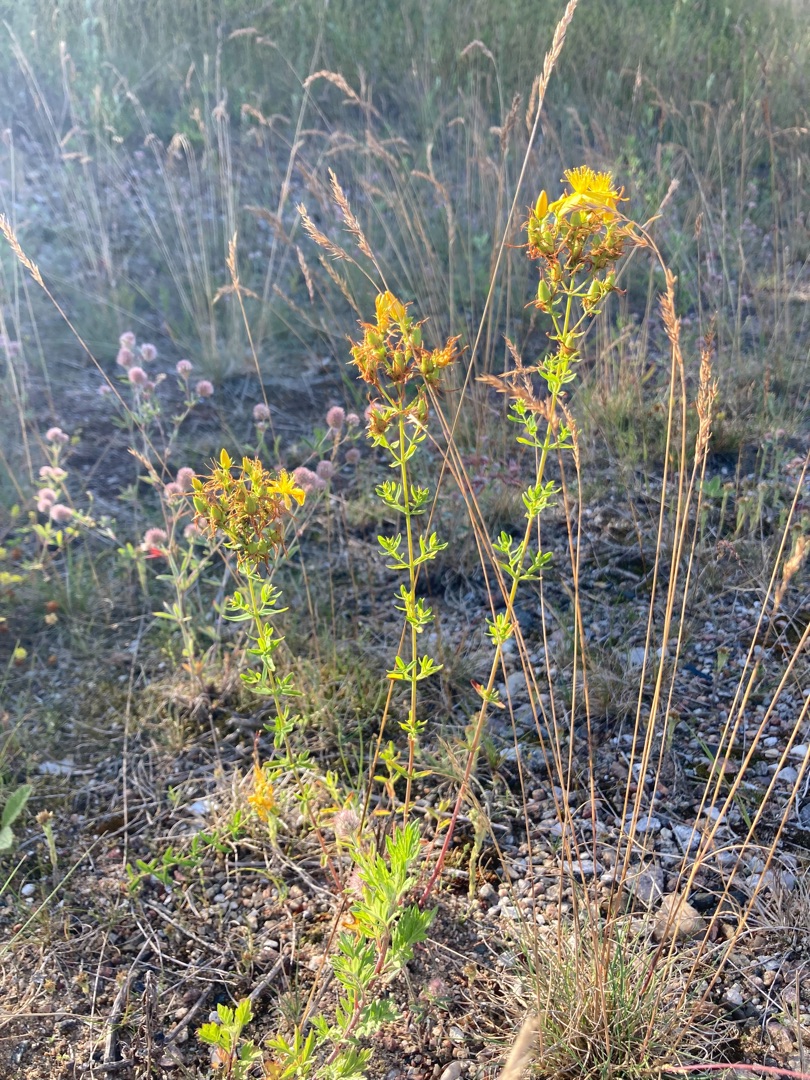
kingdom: Plantae
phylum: Tracheophyta
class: Magnoliopsida
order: Malpighiales
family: Hypericaceae
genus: Hypericum
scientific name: Hypericum perforatum
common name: Prikbladet perikon
